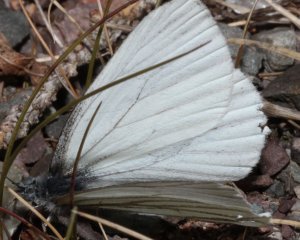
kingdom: Animalia
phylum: Arthropoda
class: Insecta
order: Lepidoptera
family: Pieridae
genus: Pieris
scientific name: Pieris oleracea
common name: Mustard White
